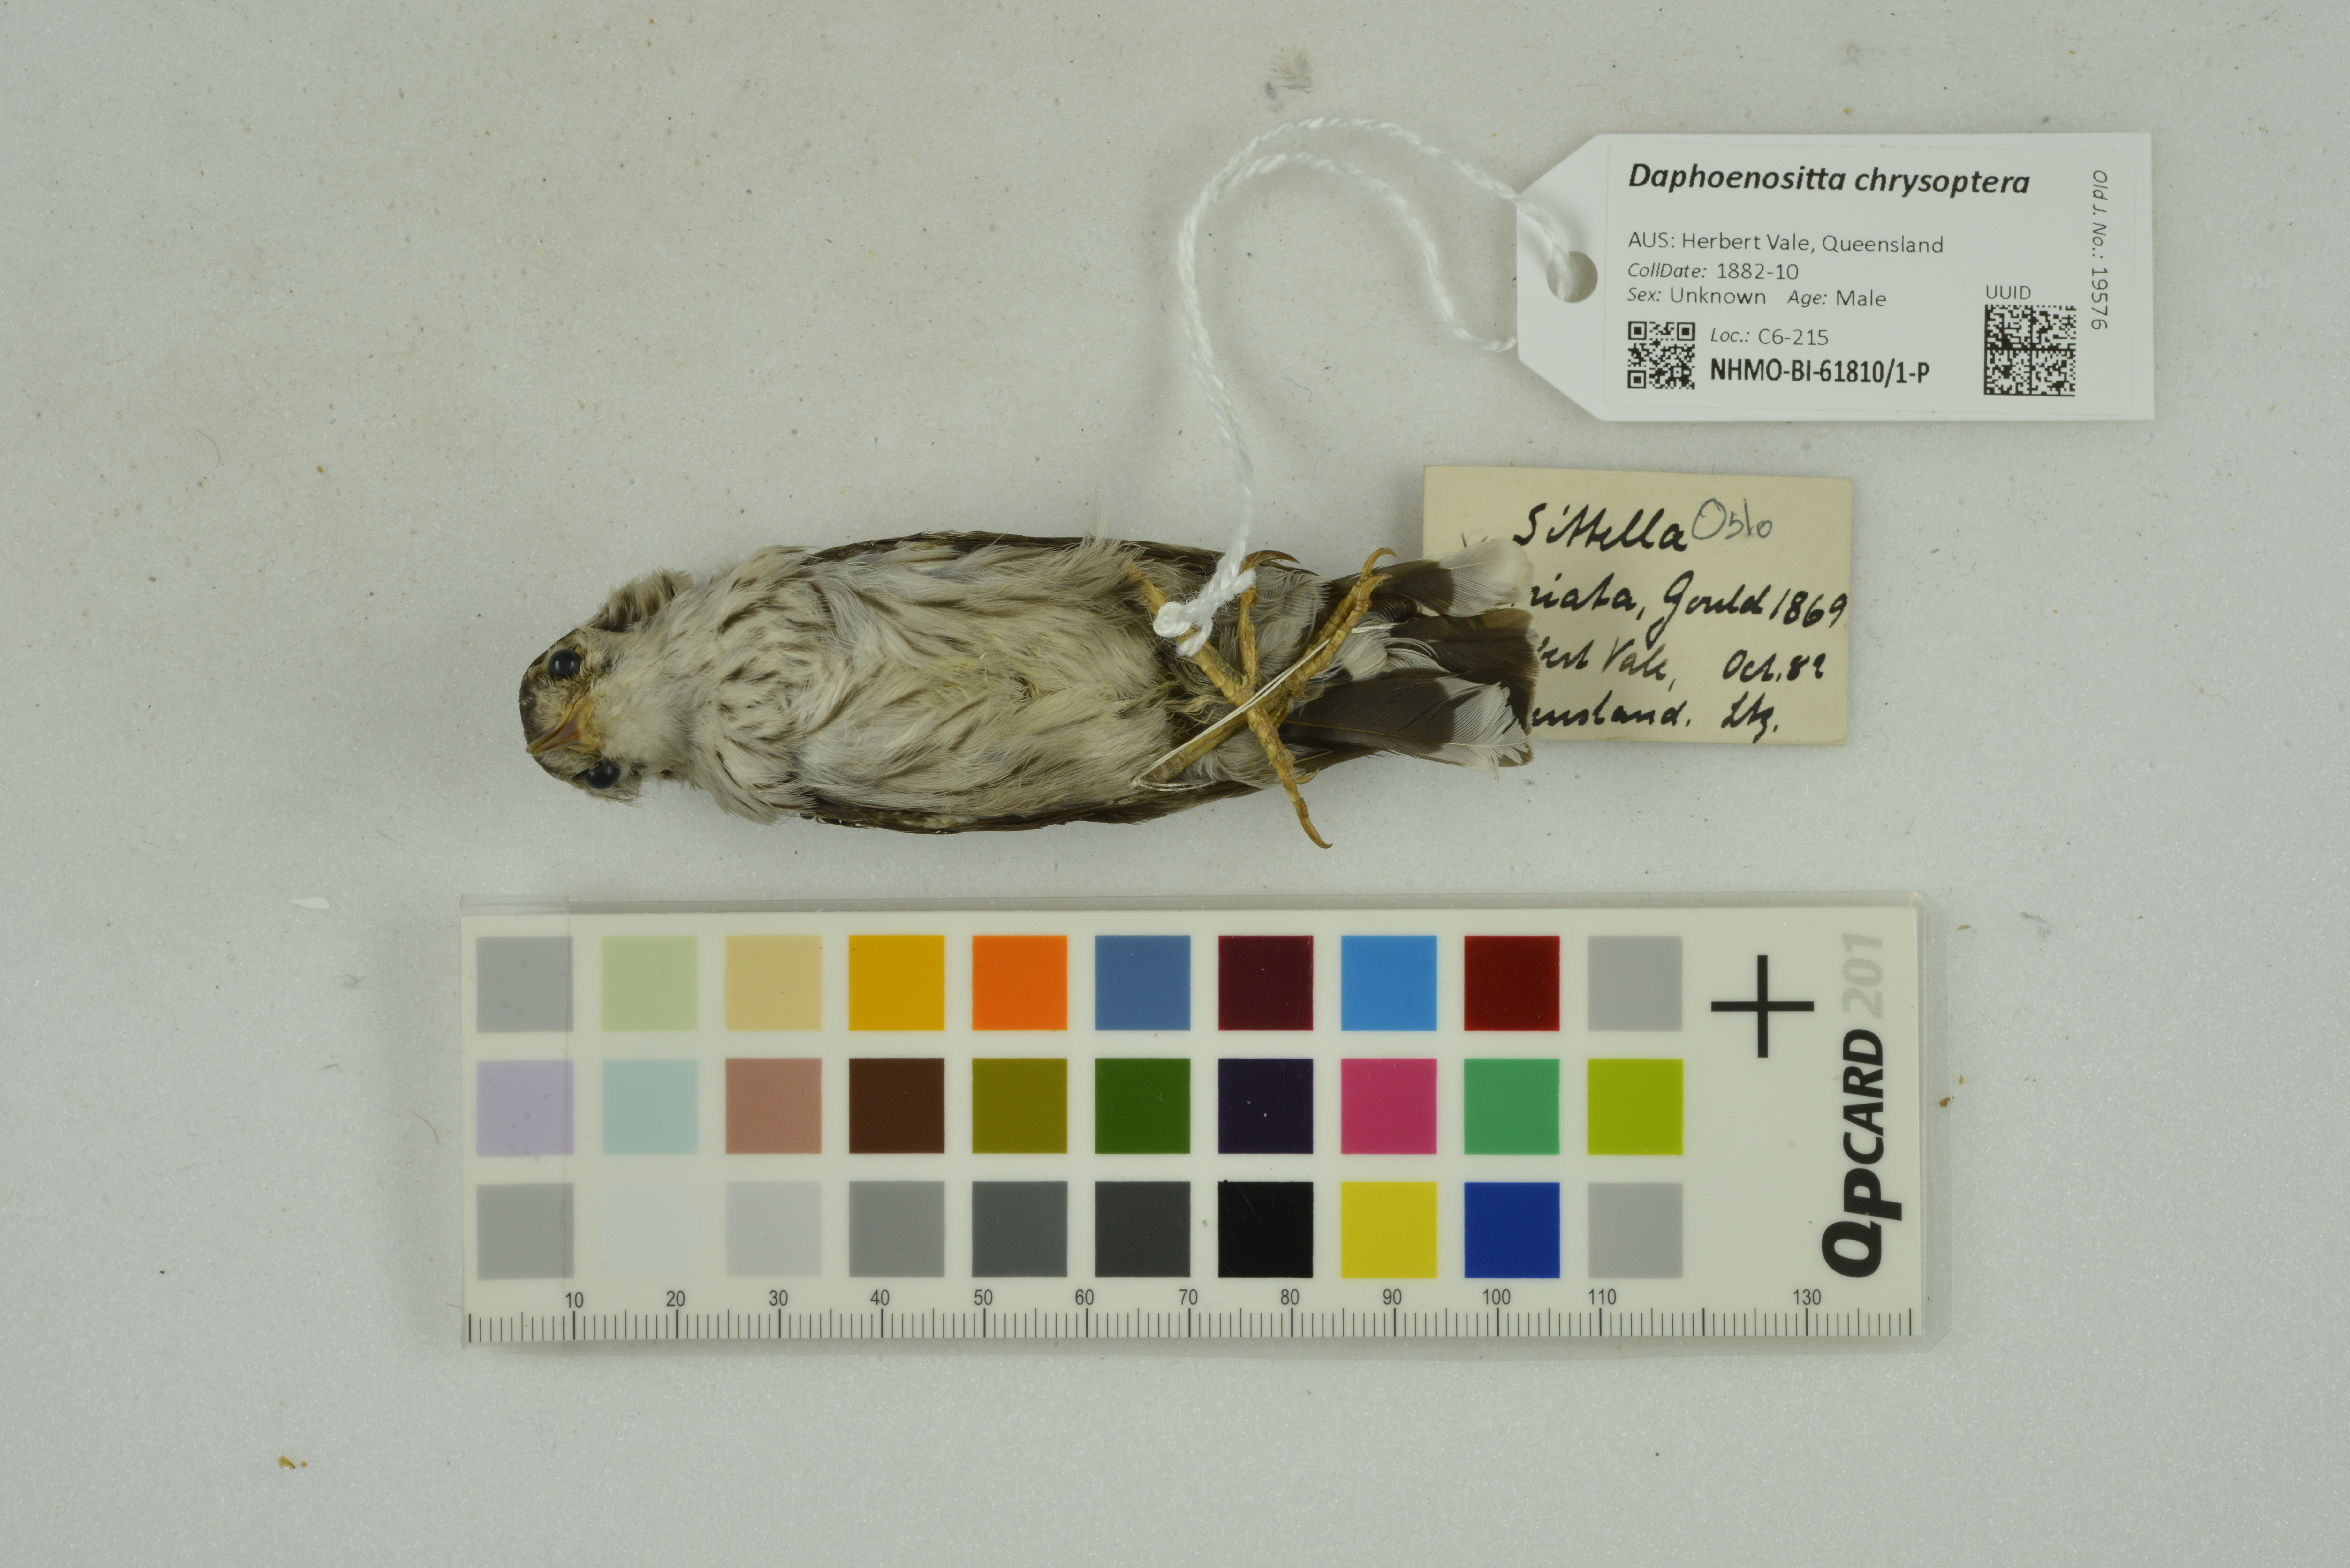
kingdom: Animalia
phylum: Chordata
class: Aves
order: Passeriformes
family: Neosittidae
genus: Daphoenositta
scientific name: Daphoenositta chrysoptera
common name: Varied sittella
